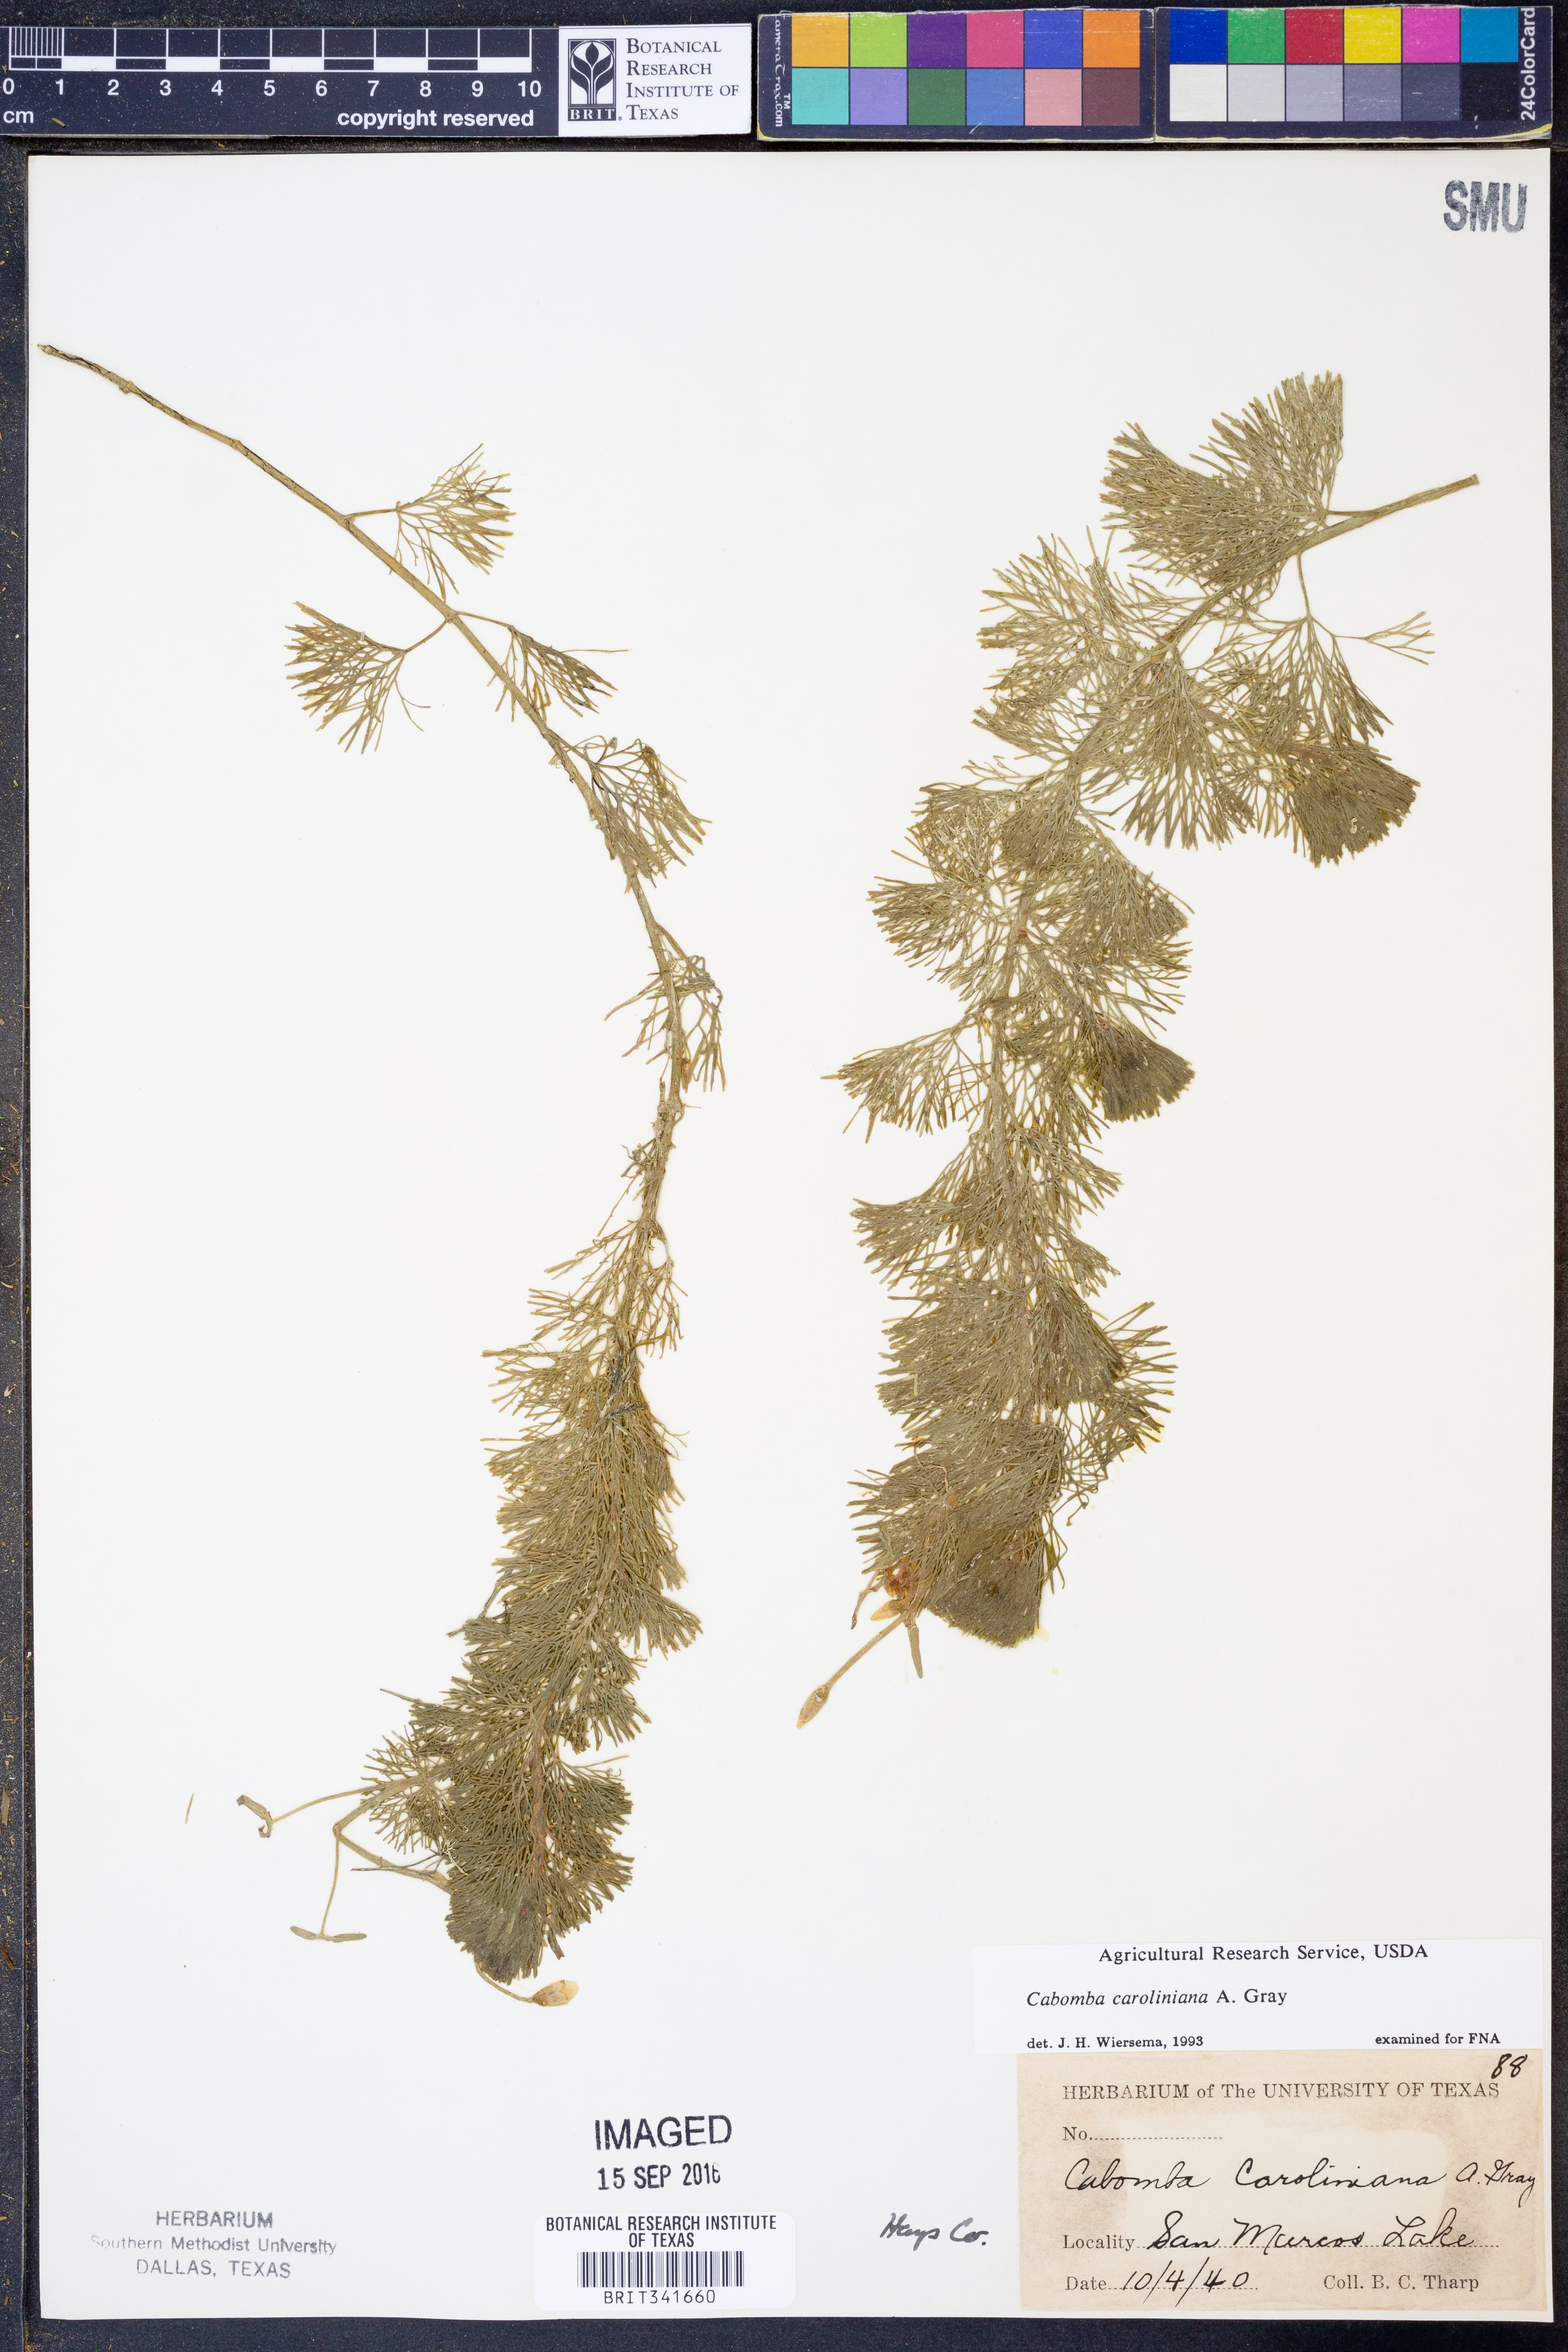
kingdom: Plantae
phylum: Tracheophyta
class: Magnoliopsida
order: Nymphaeales
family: Cabombaceae
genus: Cabomba
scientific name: Cabomba caroliniana
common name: Fanwort
